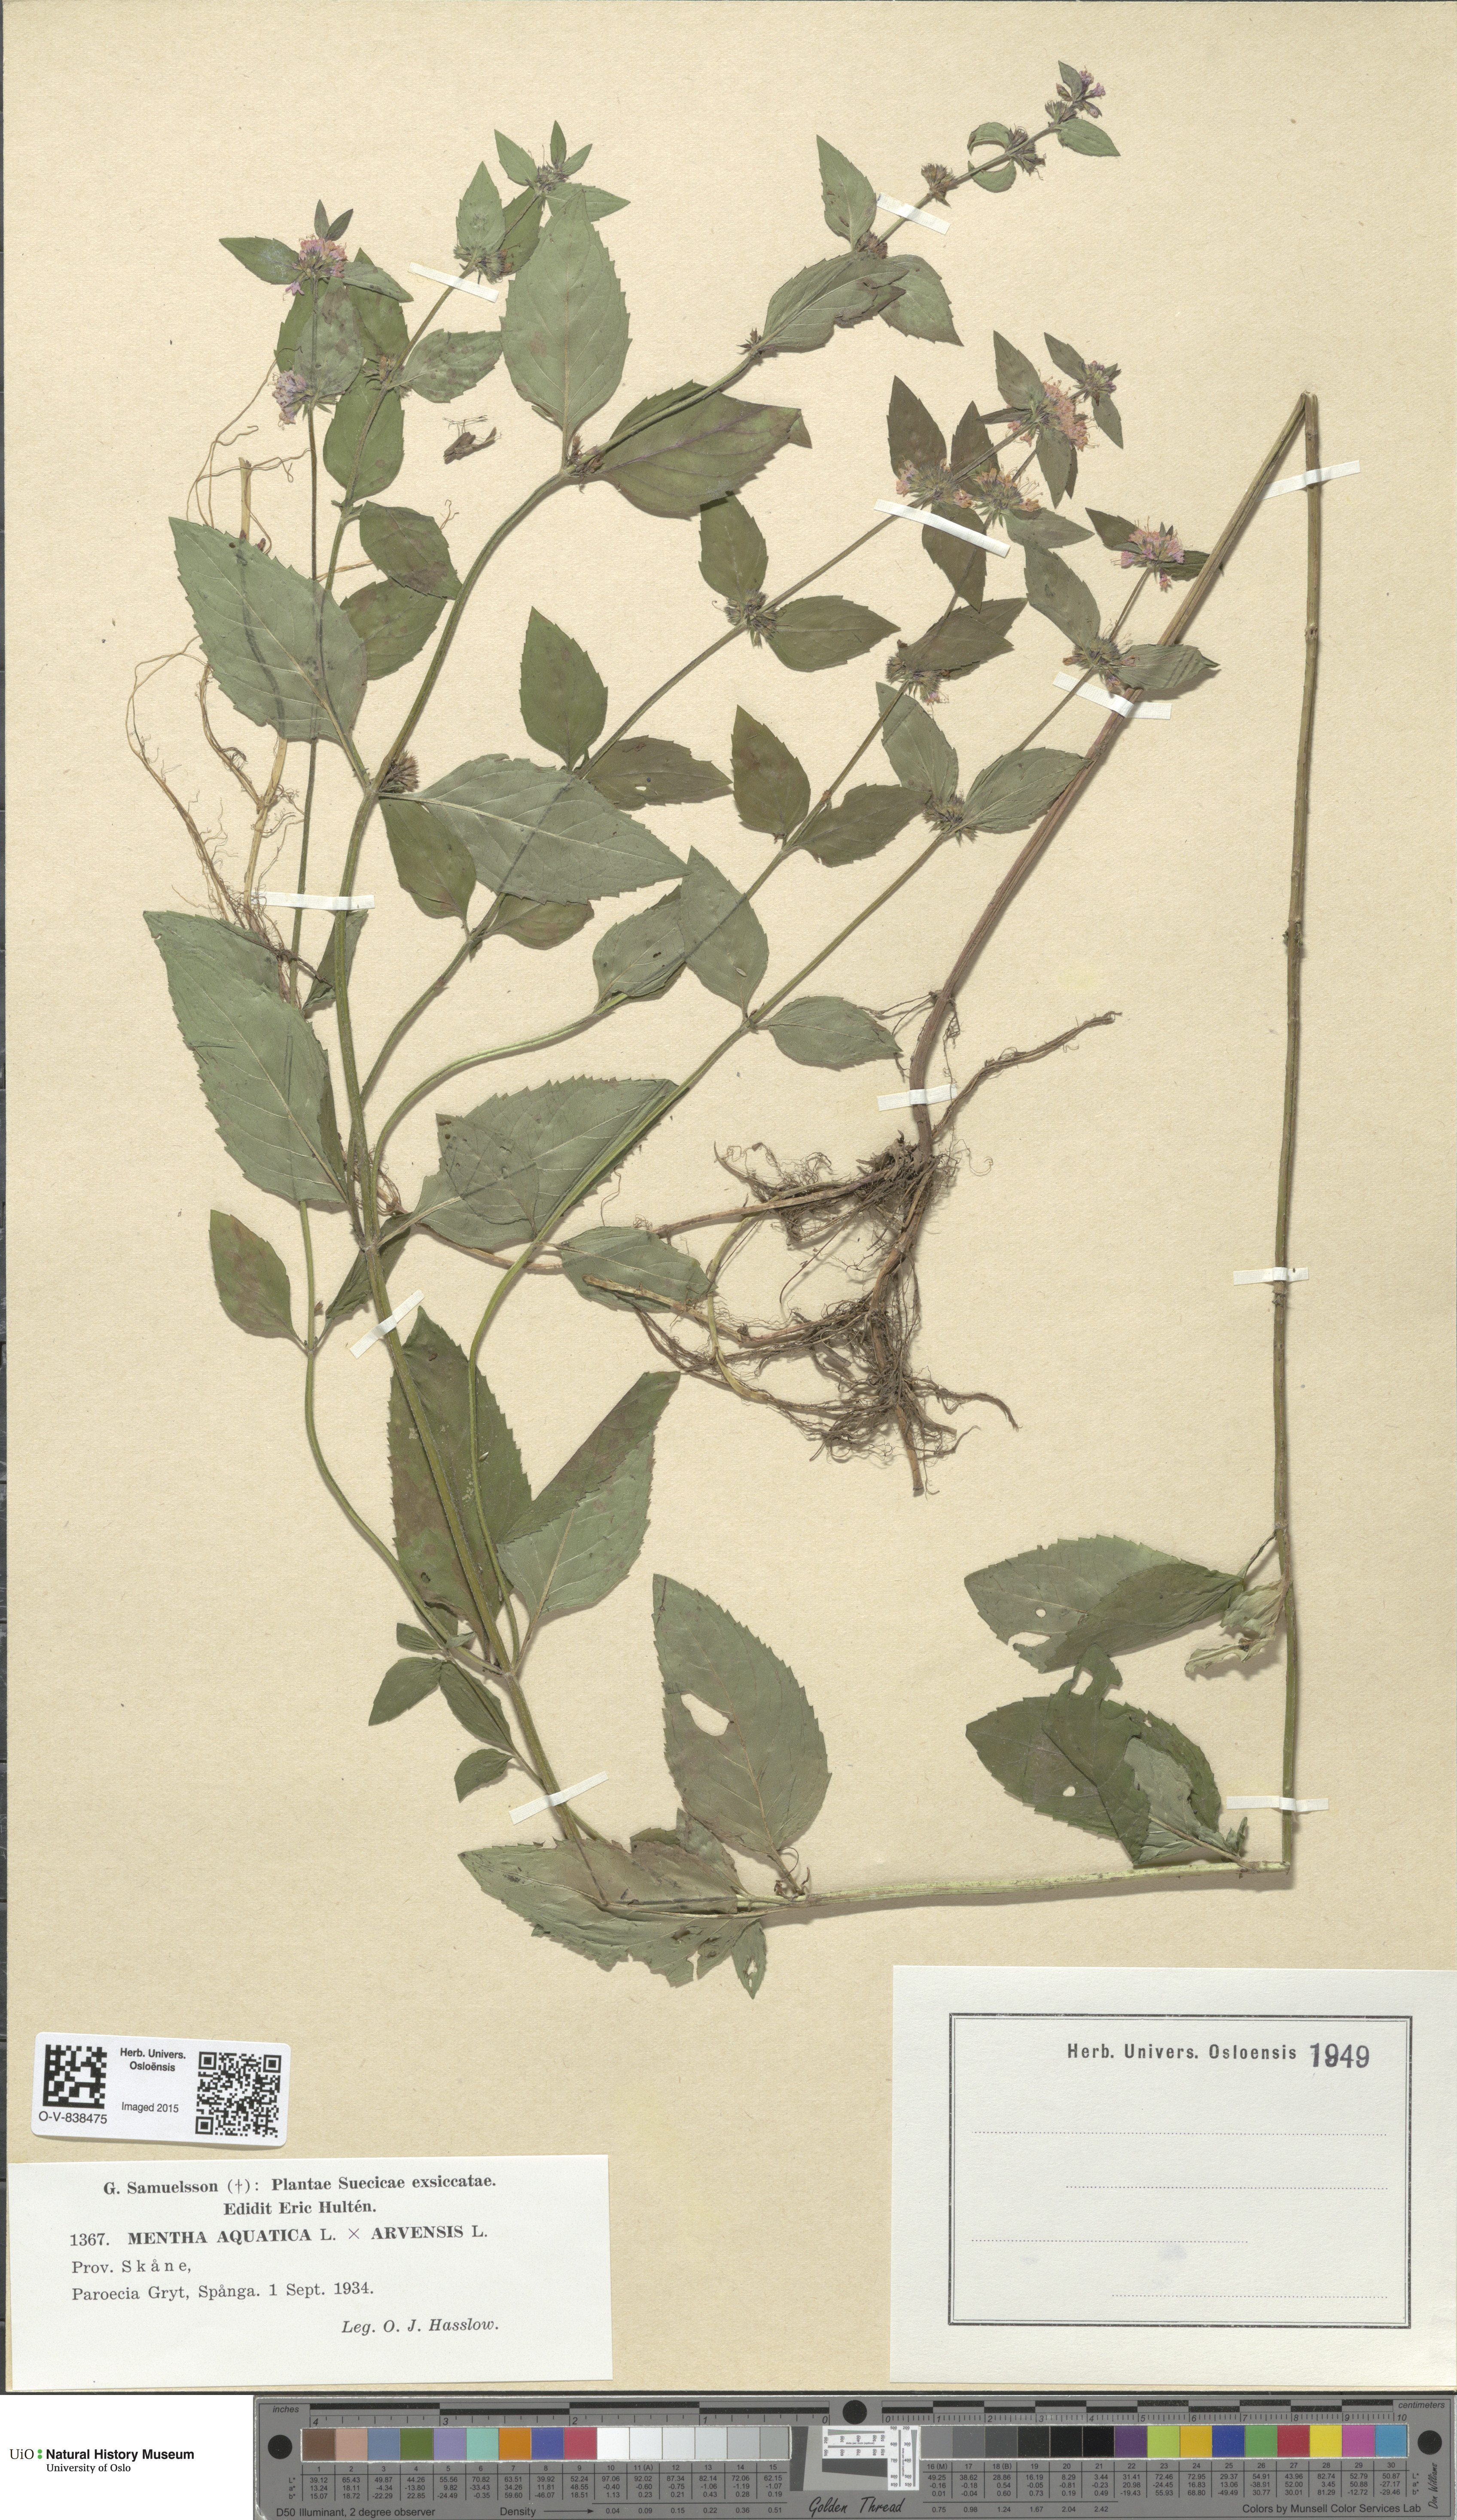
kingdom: Plantae
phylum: Tracheophyta
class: Magnoliopsida
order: Lamiales
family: Lamiaceae
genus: Mentha
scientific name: Mentha
